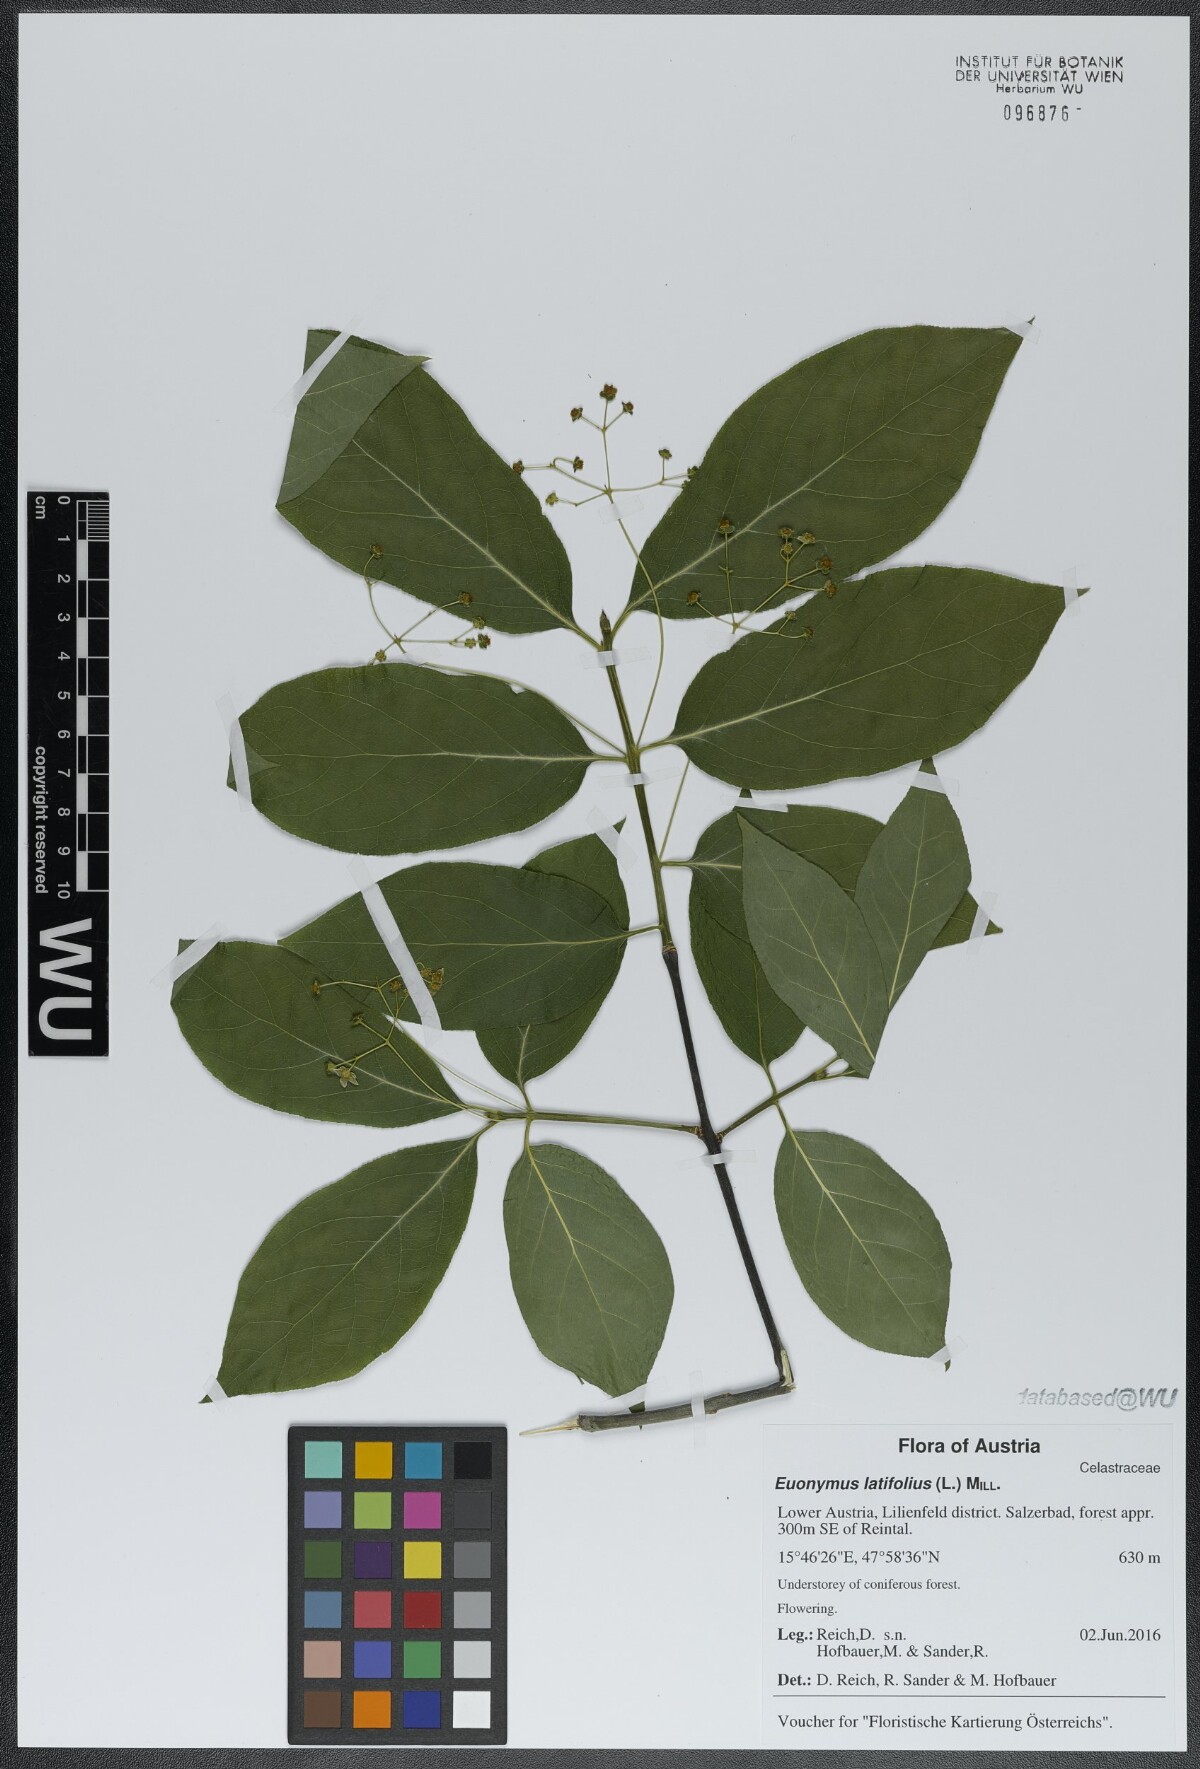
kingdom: Plantae
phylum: Tracheophyta
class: Magnoliopsida
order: Celastrales
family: Celastraceae
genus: Euonymus
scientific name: Euonymus latifolius
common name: Large-leaved spindle
